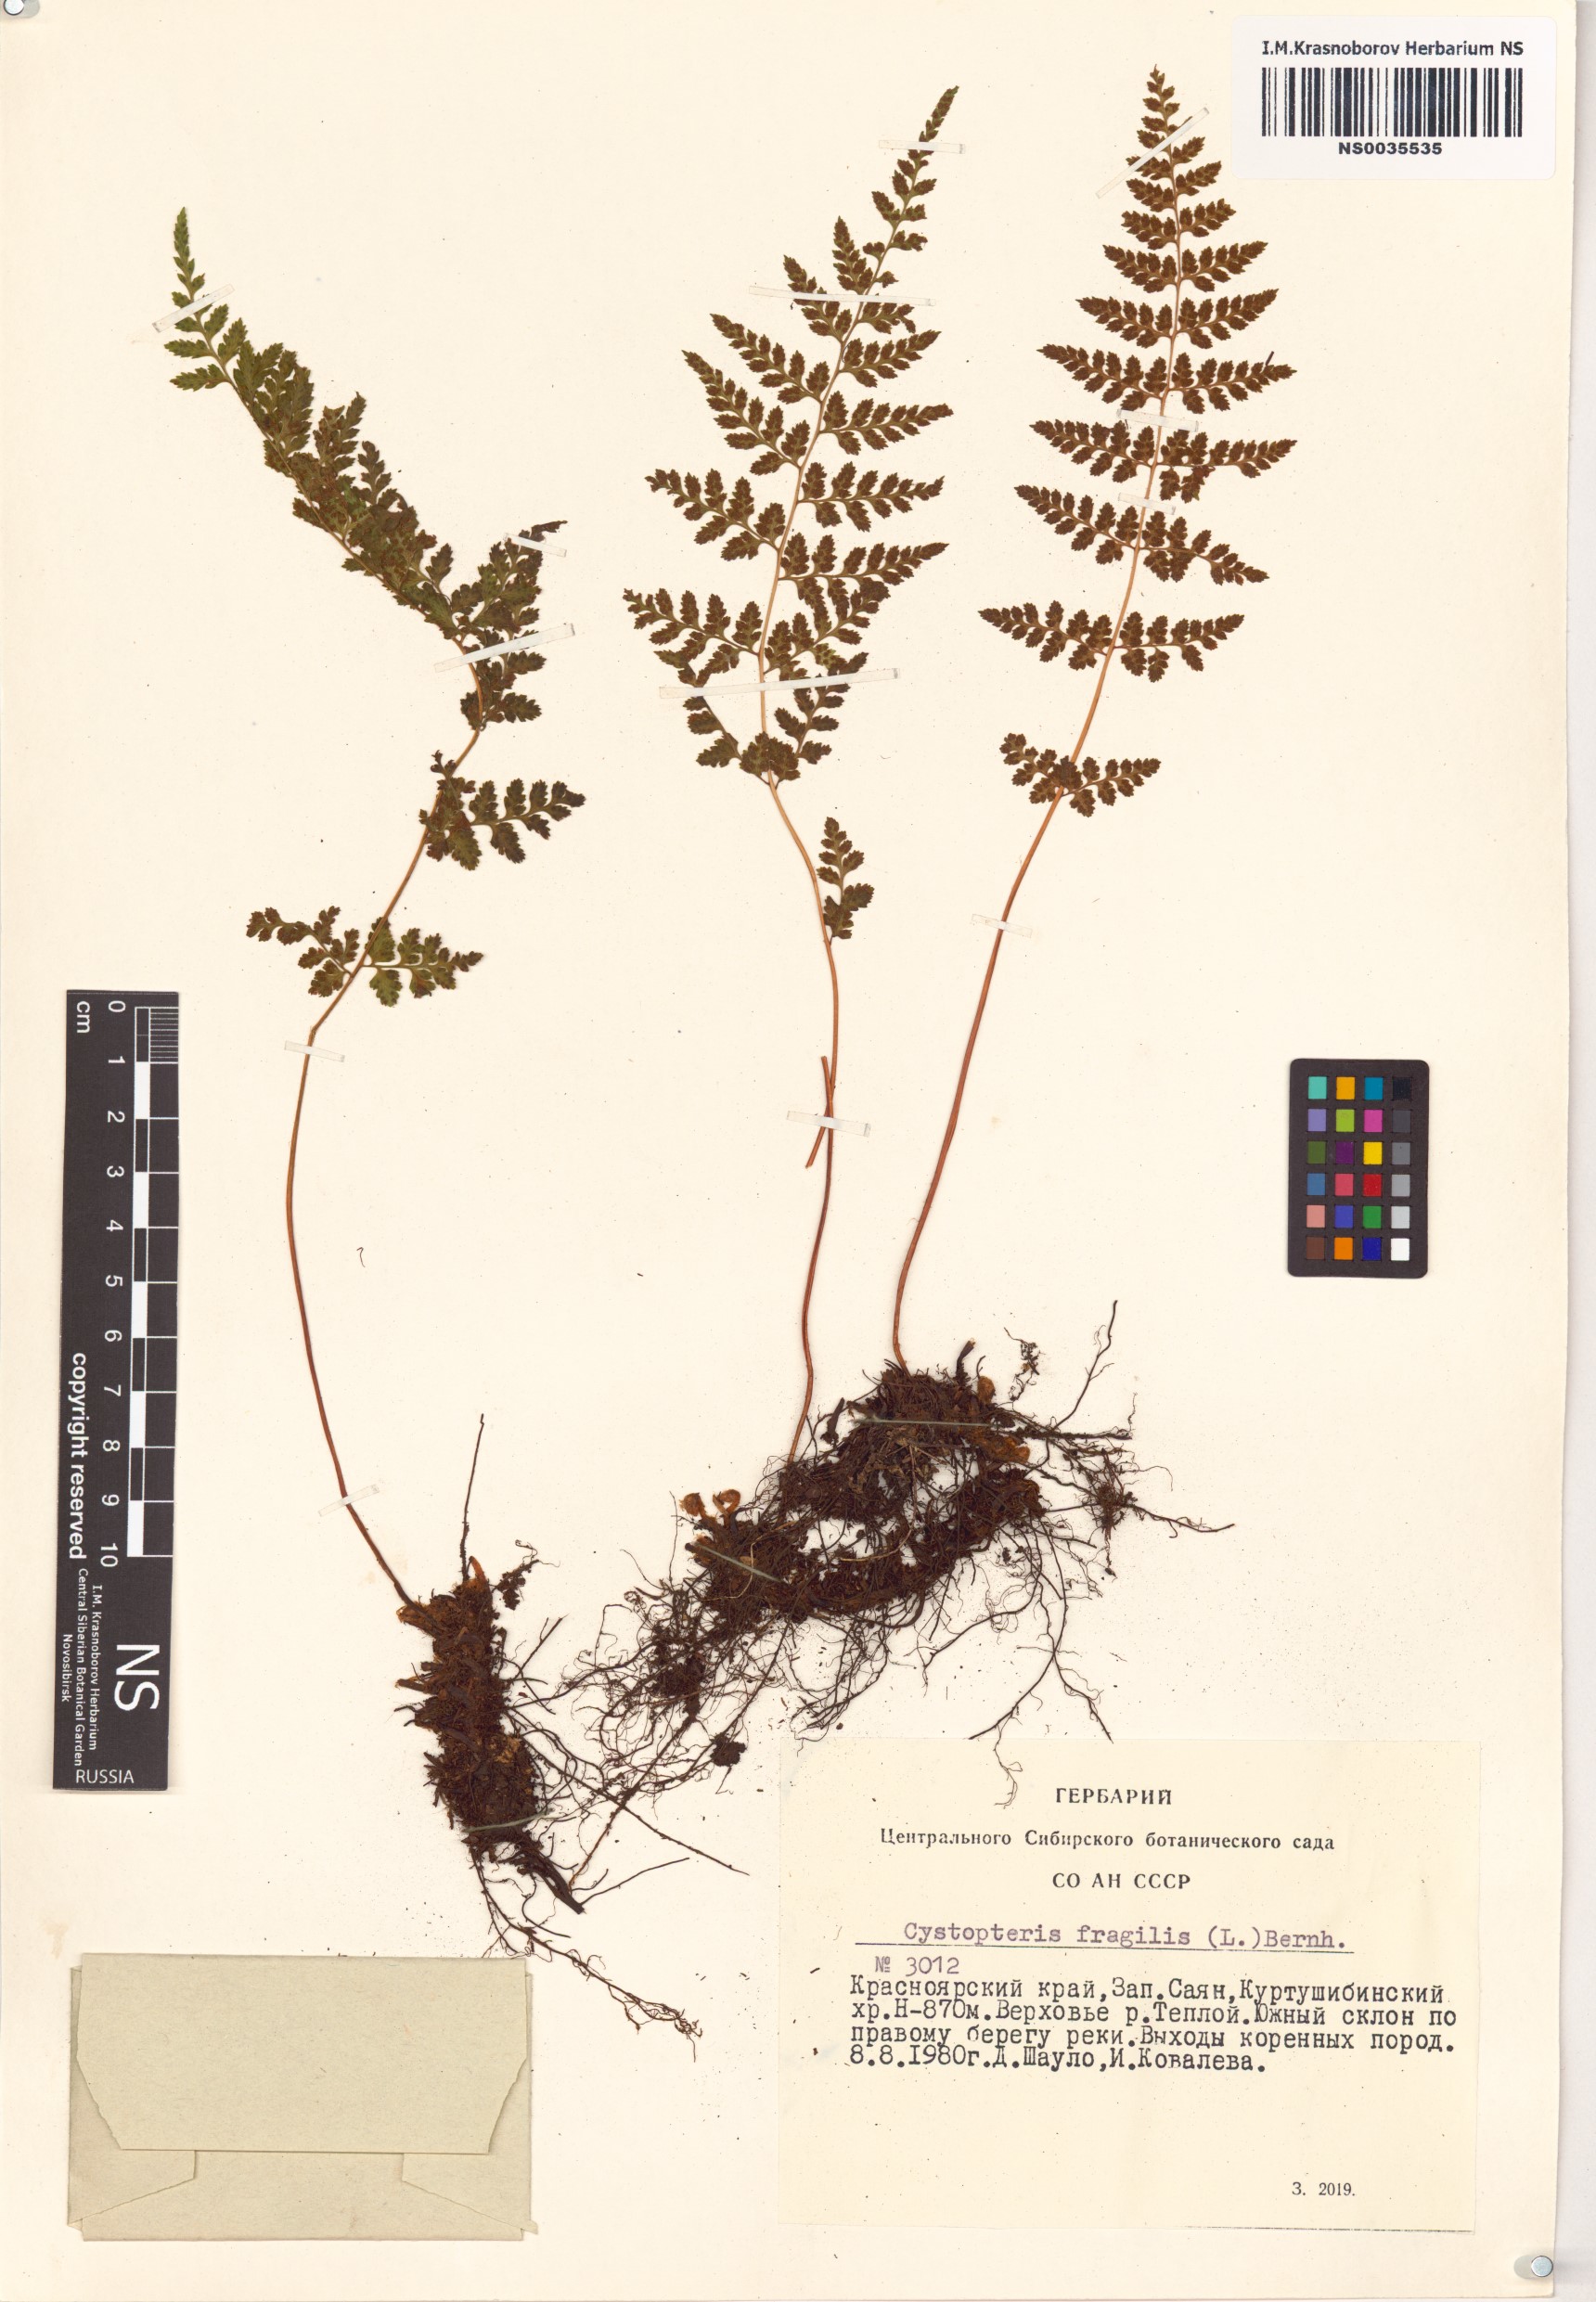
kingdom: Plantae
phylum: Tracheophyta
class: Polypodiopsida
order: Polypodiales
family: Cystopteridaceae
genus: Cystopteris
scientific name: Cystopteris fragilis
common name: Brittle bladder fern
